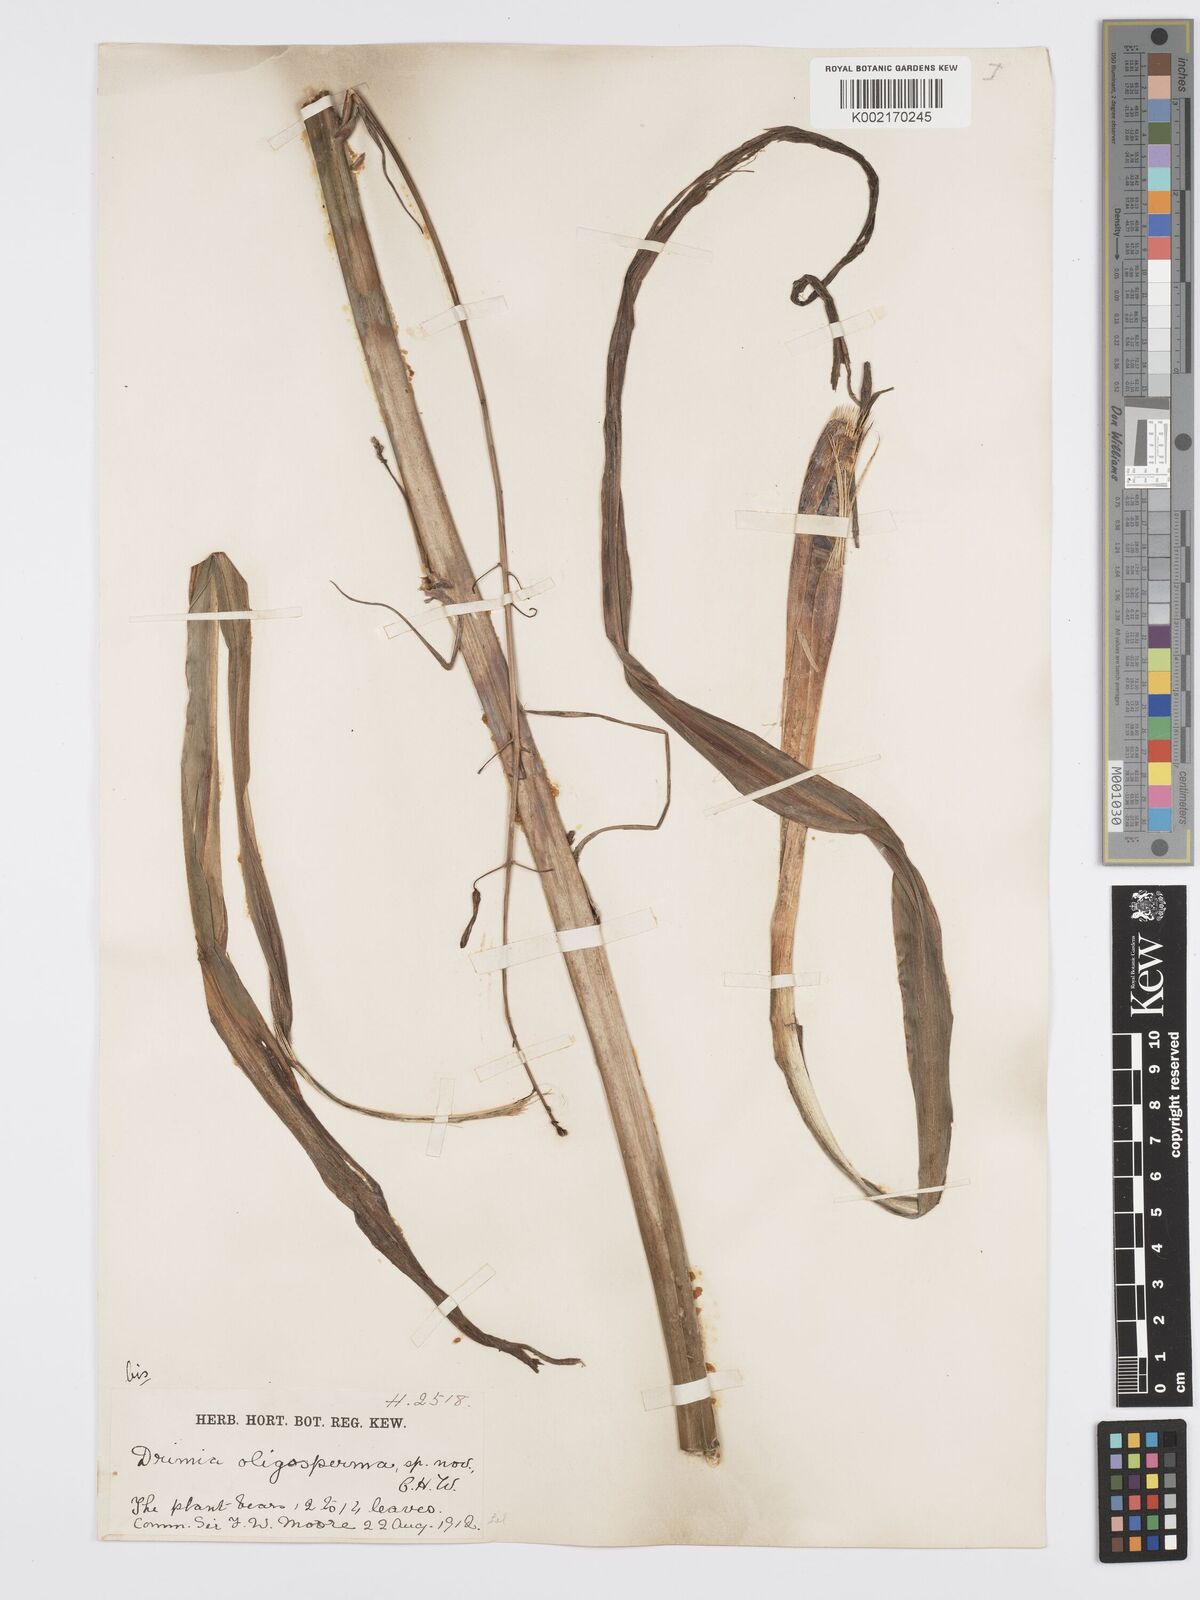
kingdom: Plantae
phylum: Tracheophyta
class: Liliopsida
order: Asparagales
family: Asparagaceae
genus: Chlorogalum
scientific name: Chlorogalum
